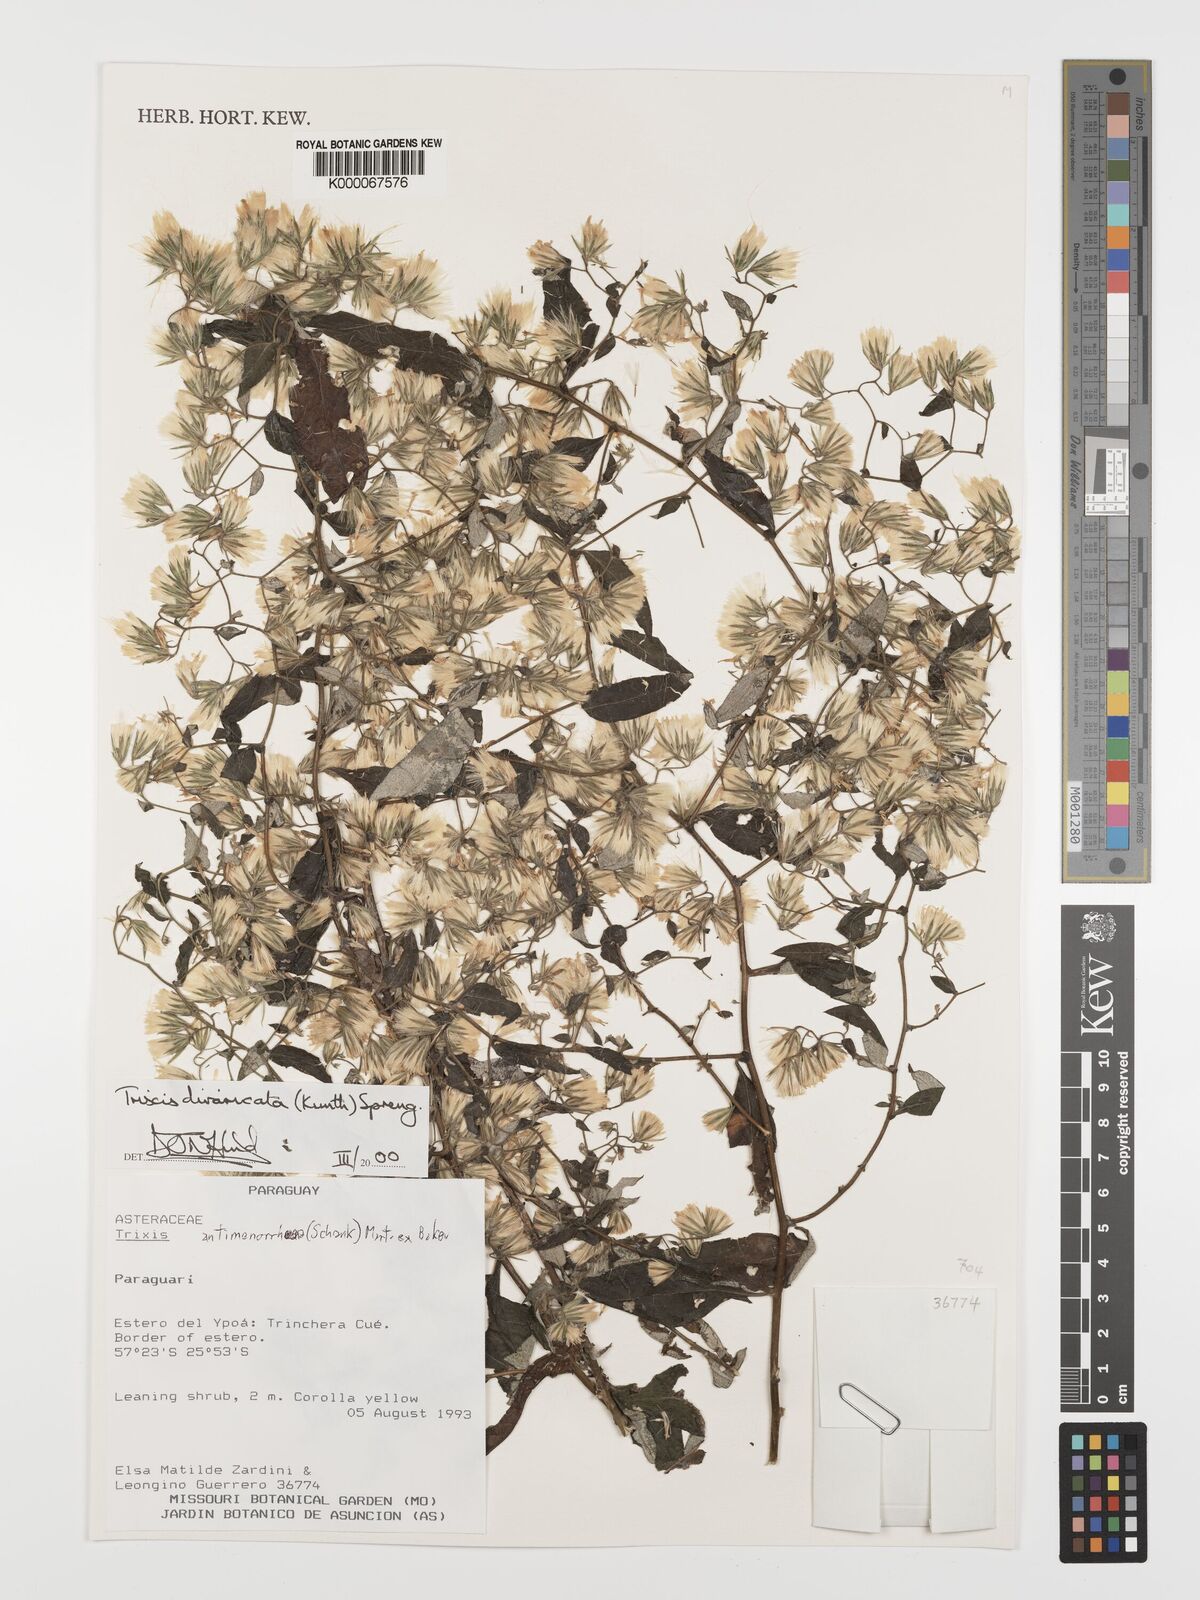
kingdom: Plantae
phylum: Tracheophyta
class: Magnoliopsida
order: Asterales
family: Asteraceae
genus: Trixis
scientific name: Trixis divaricata
